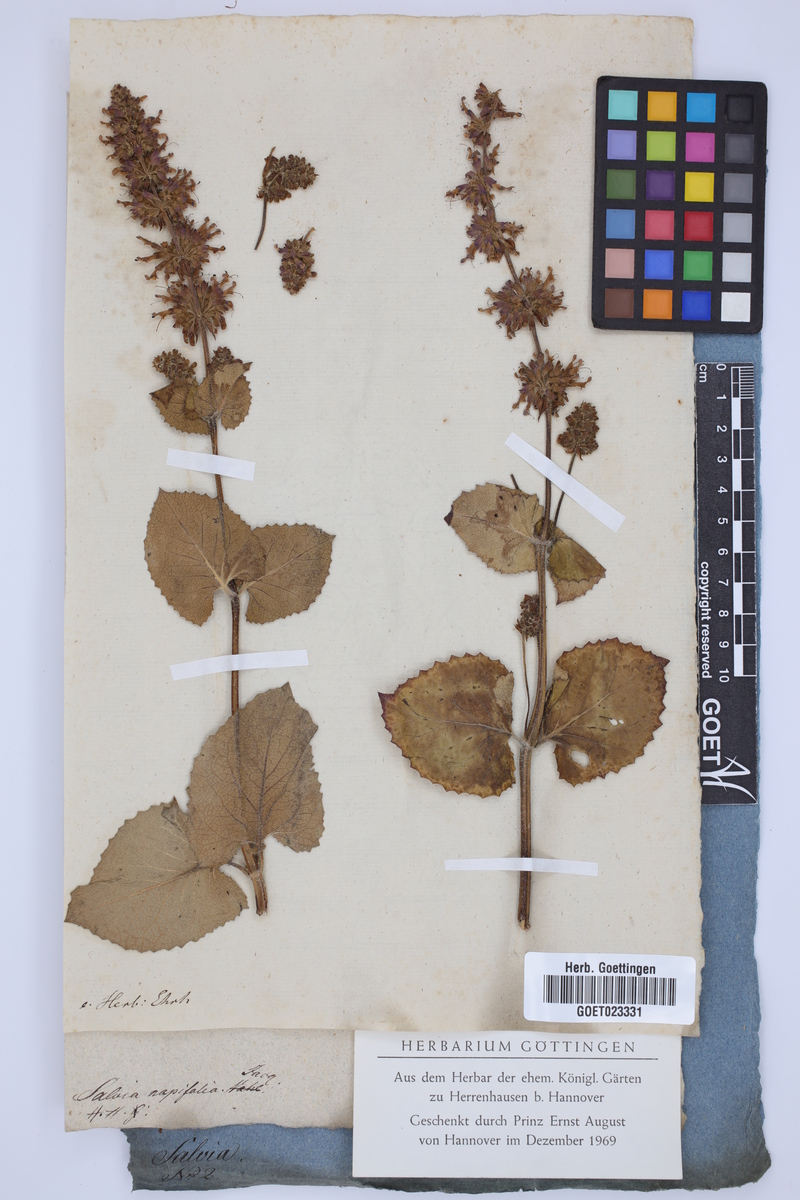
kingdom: Plantae
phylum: Tracheophyta
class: Magnoliopsida
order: Lamiales
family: Lamiaceae
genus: Salvia
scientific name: Salvia napifolia
